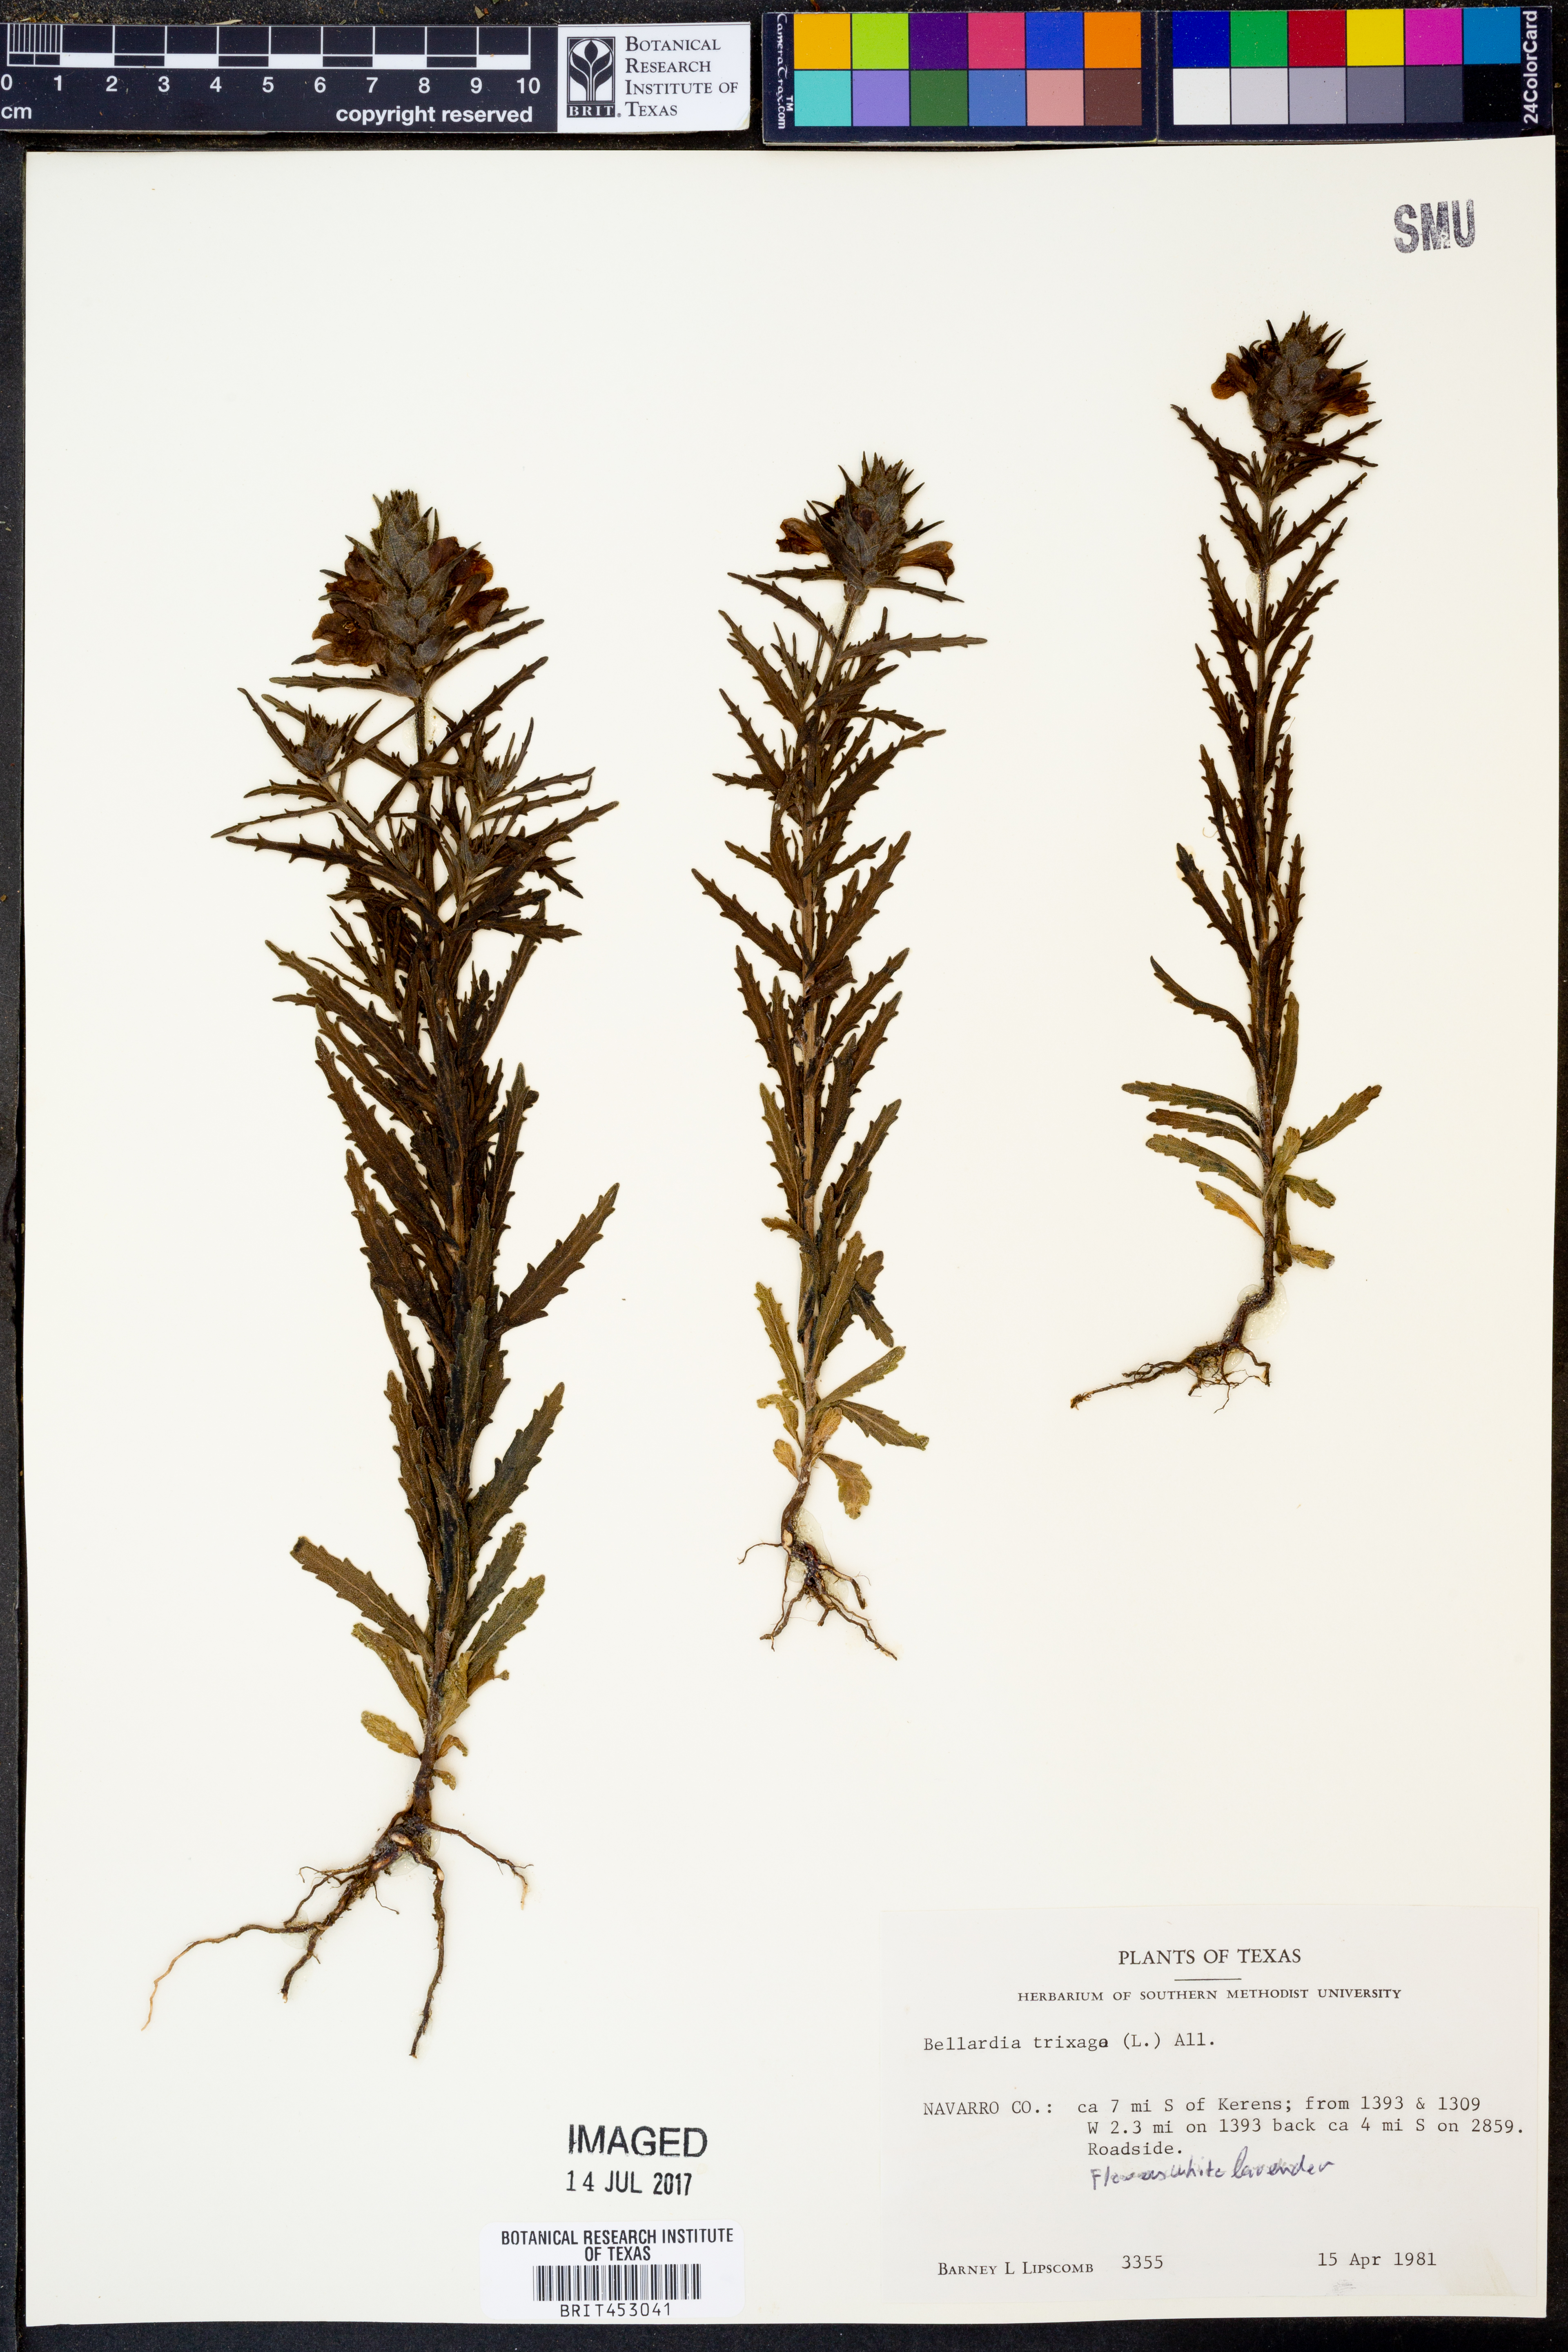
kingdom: Plantae
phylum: Tracheophyta
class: Magnoliopsida
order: Lamiales
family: Orobanchaceae
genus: Bellardia
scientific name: Bellardia trixago
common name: Mediterranean lineseed
